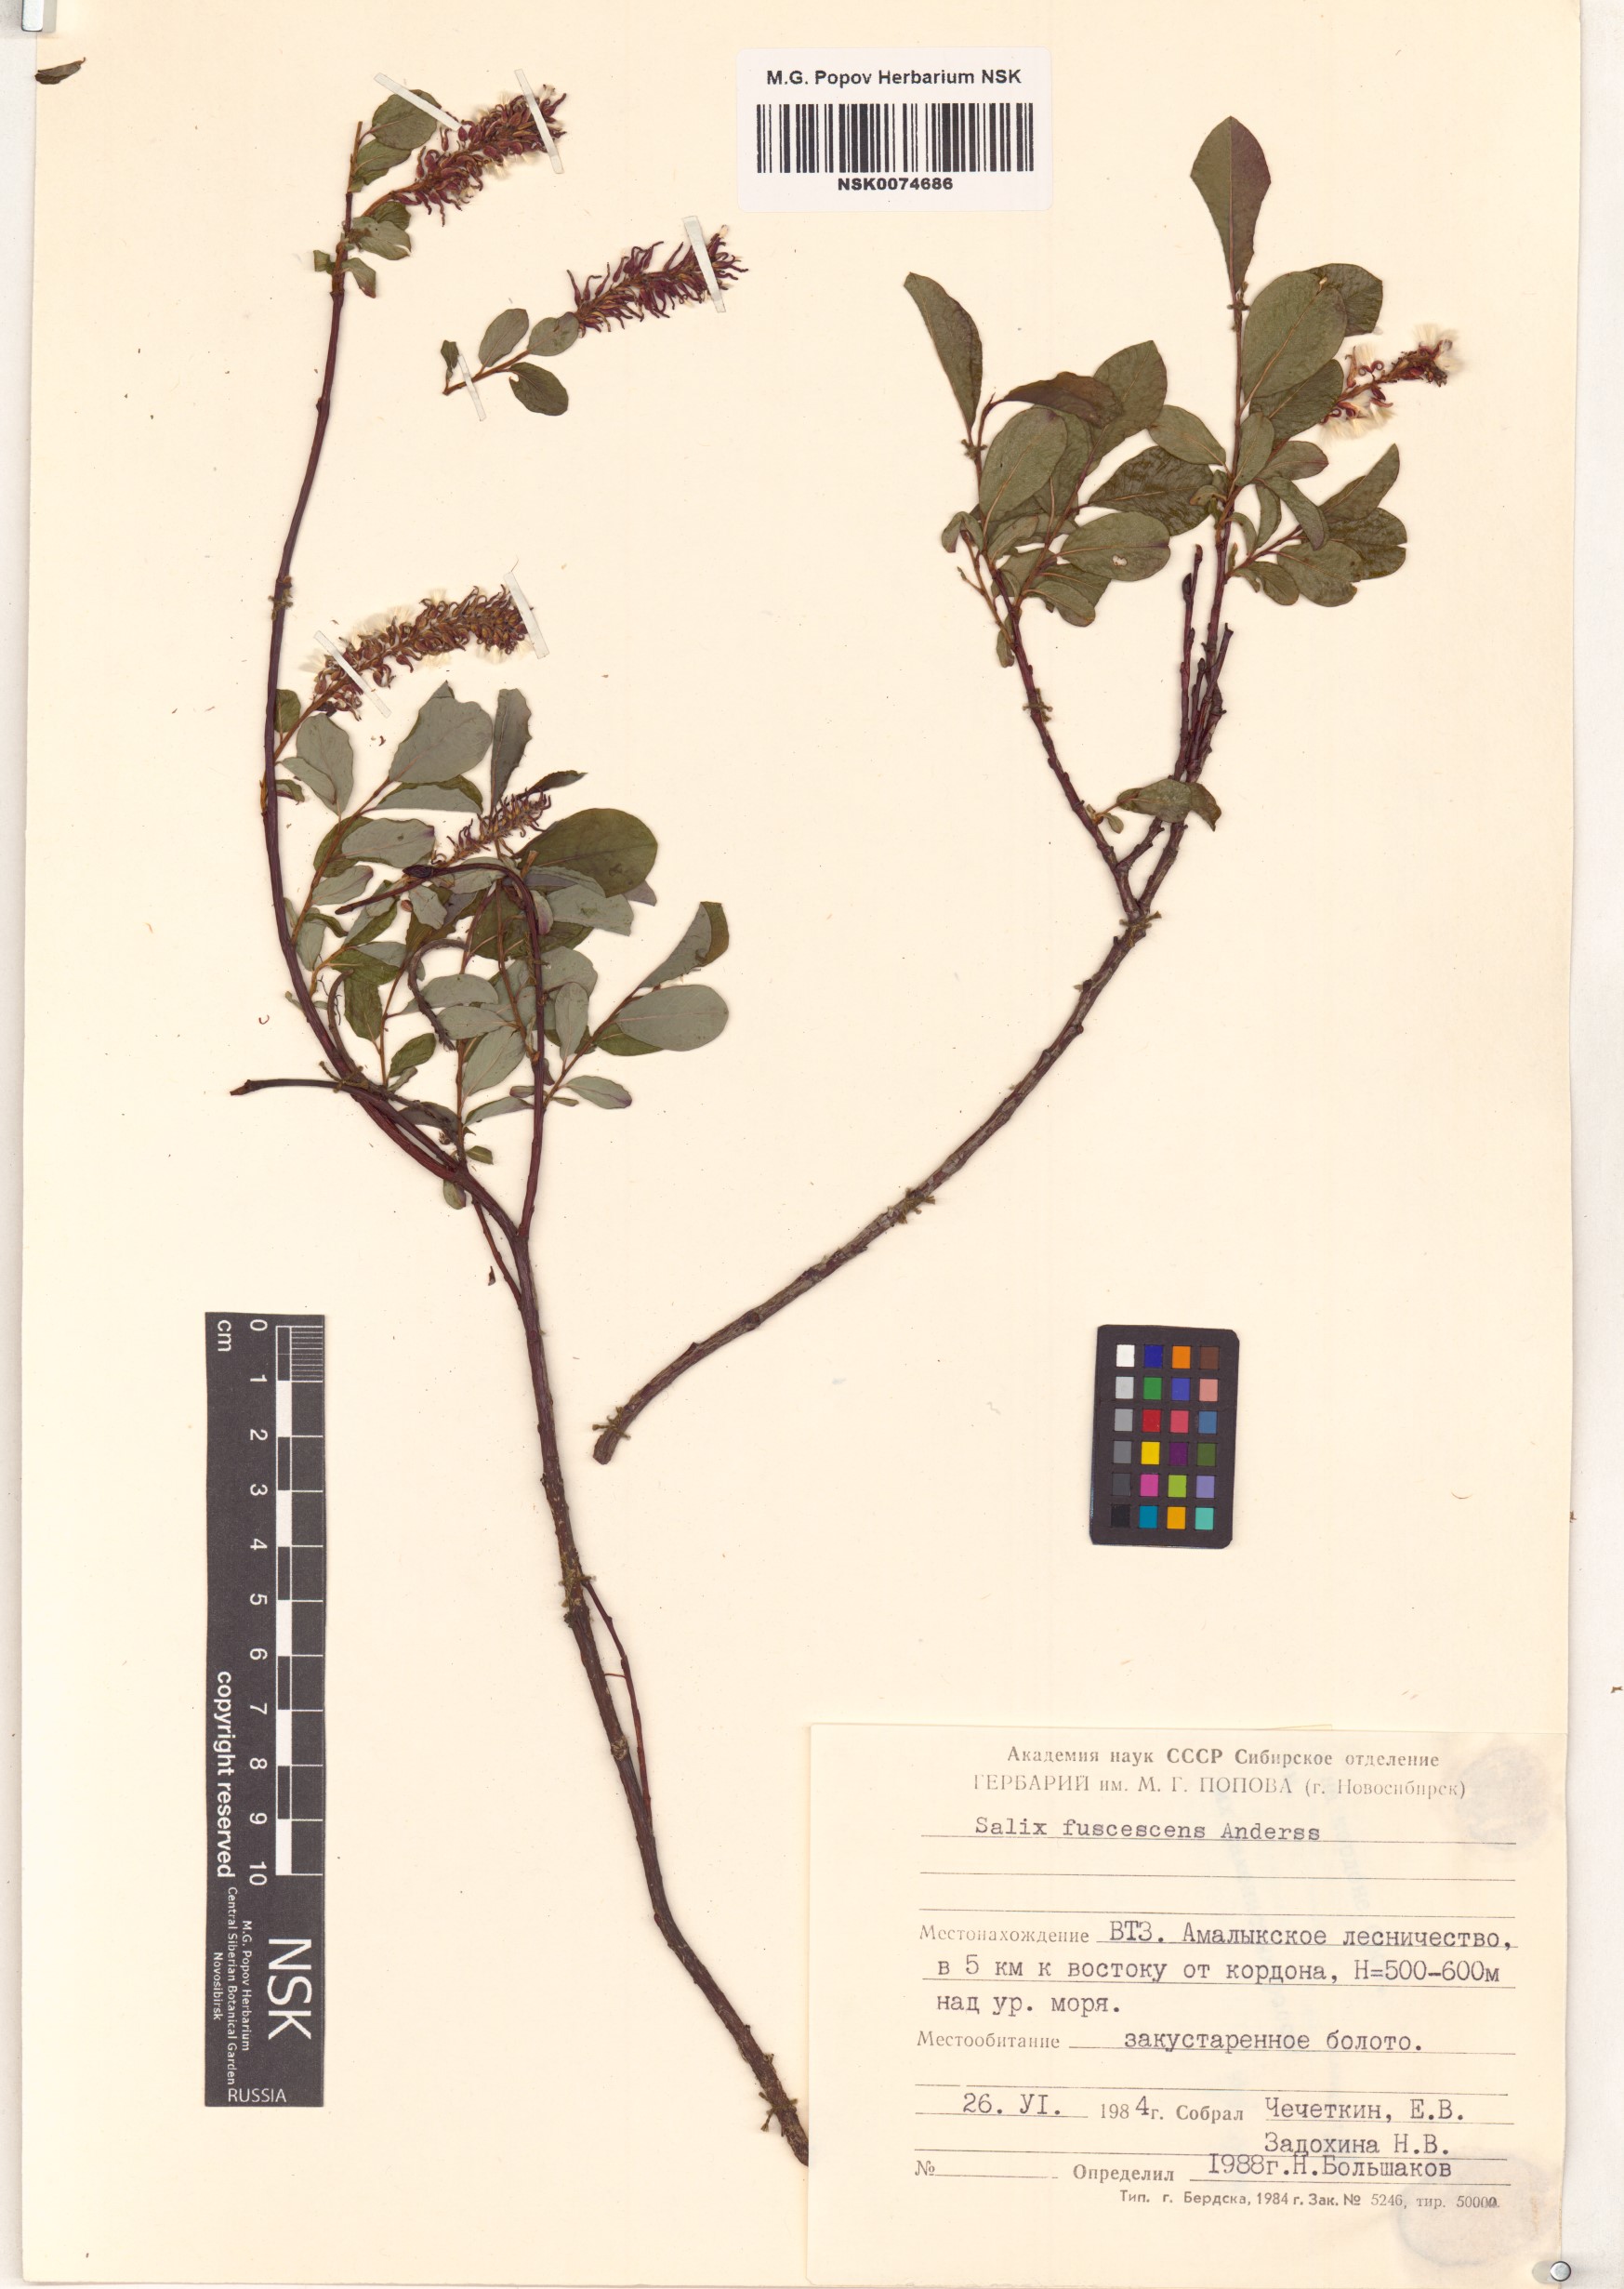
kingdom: Plantae
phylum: Tracheophyta
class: Magnoliopsida
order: Malpighiales
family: Salicaceae
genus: Salix
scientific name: Salix fuscescens
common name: Brownish willow
